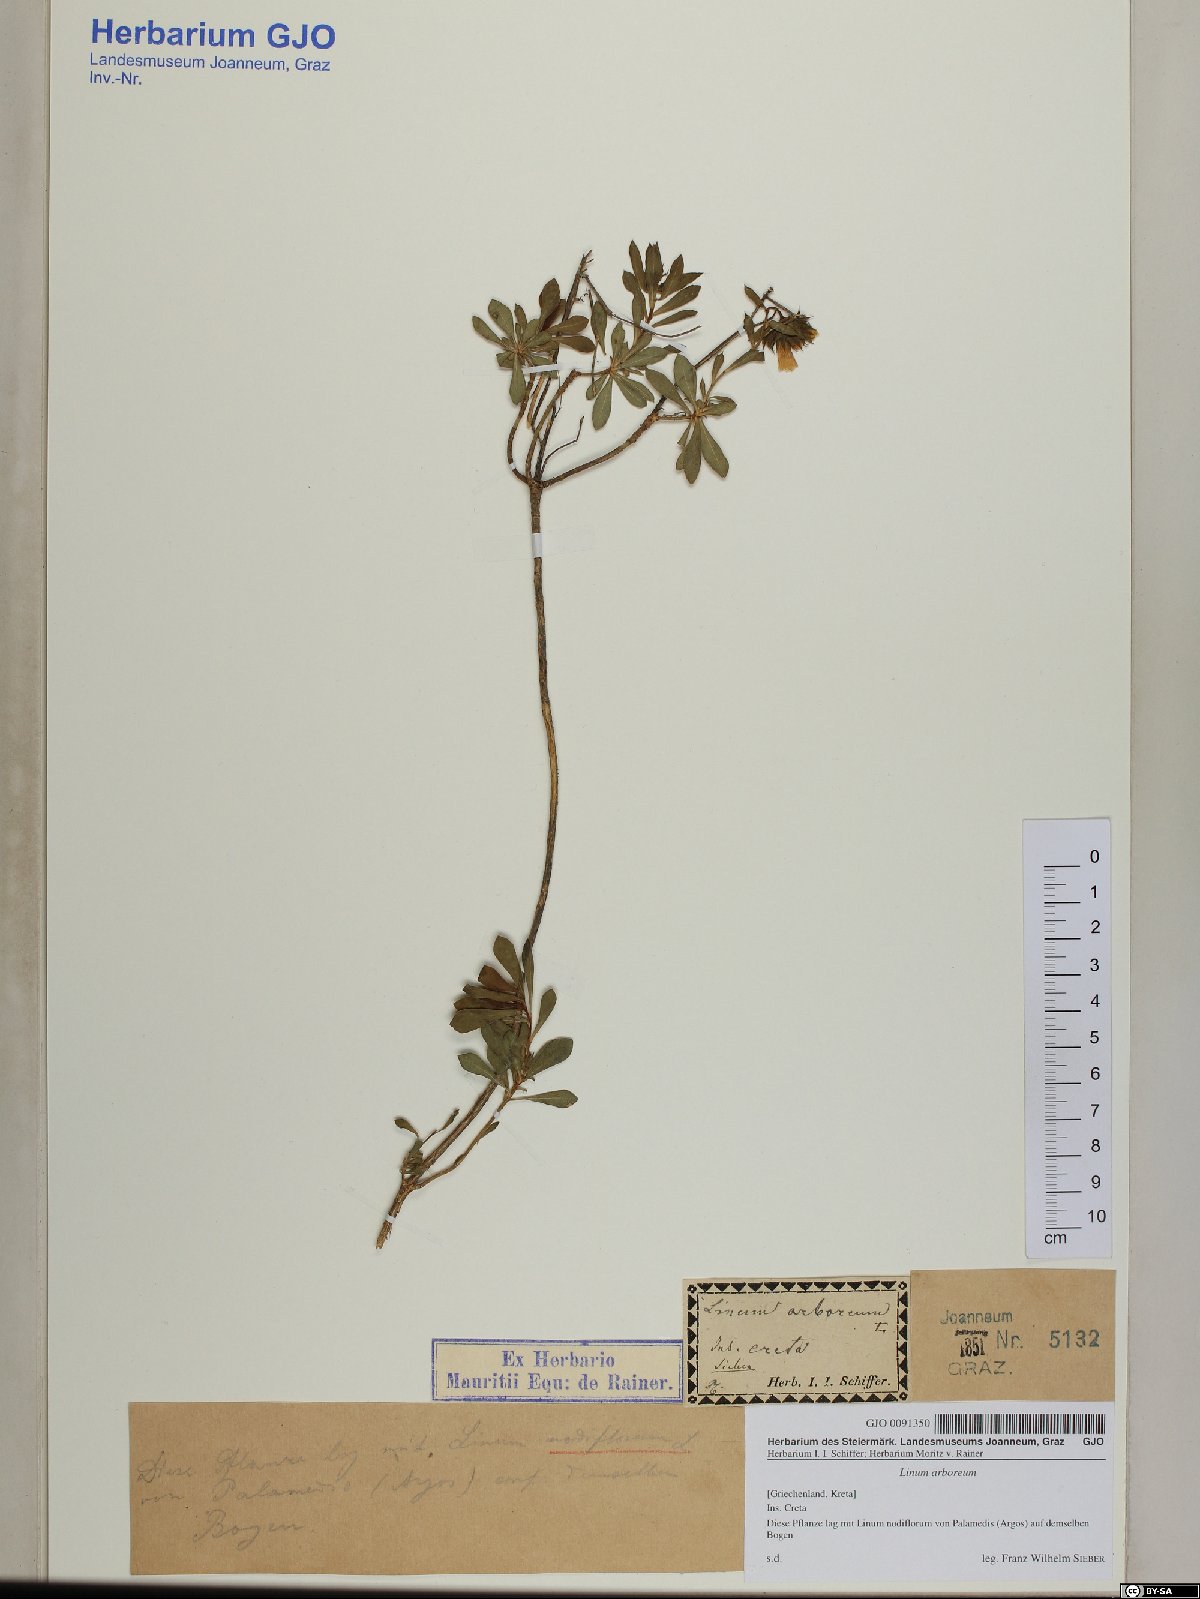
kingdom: Plantae
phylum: Tracheophyta
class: Magnoliopsida
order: Malpighiales
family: Linaceae
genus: Linum
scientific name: Linum arboreum
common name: Tree flax
